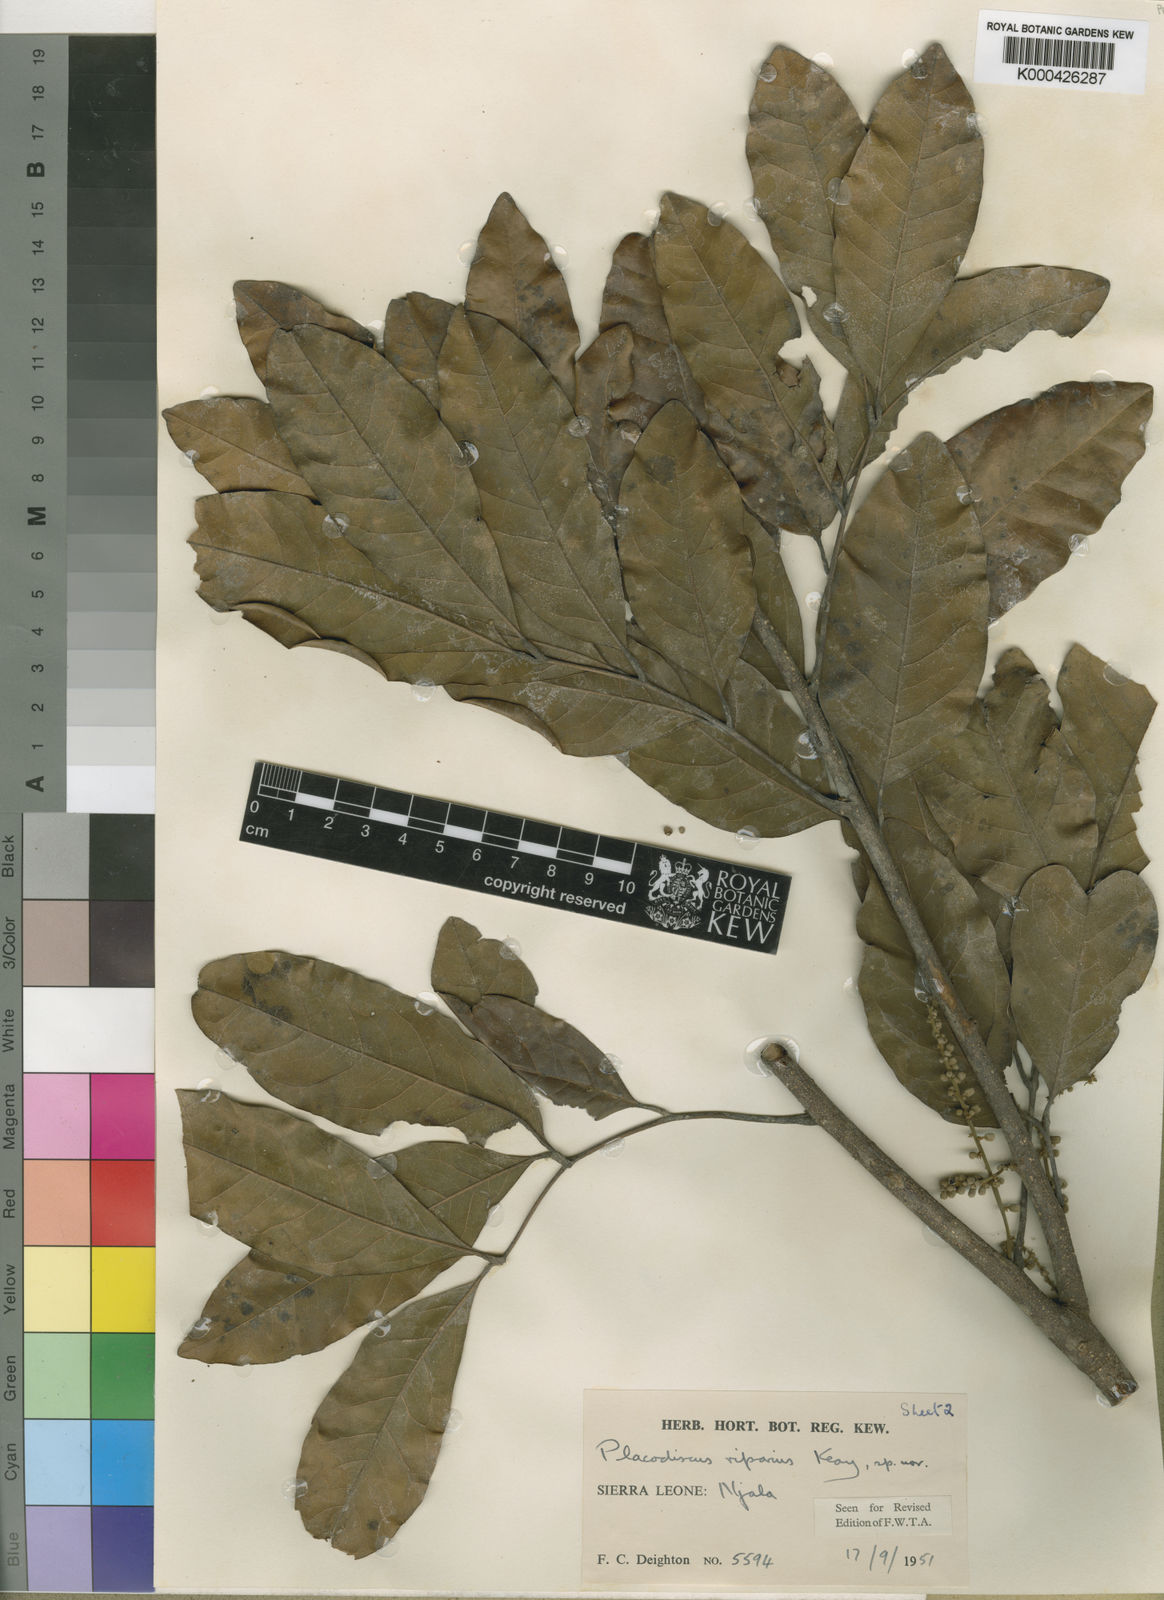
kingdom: Plantae
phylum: Tracheophyta
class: Magnoliopsida
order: Sapindales
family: Sapindaceae
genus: Placodiscus
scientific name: Placodiscus riparius
